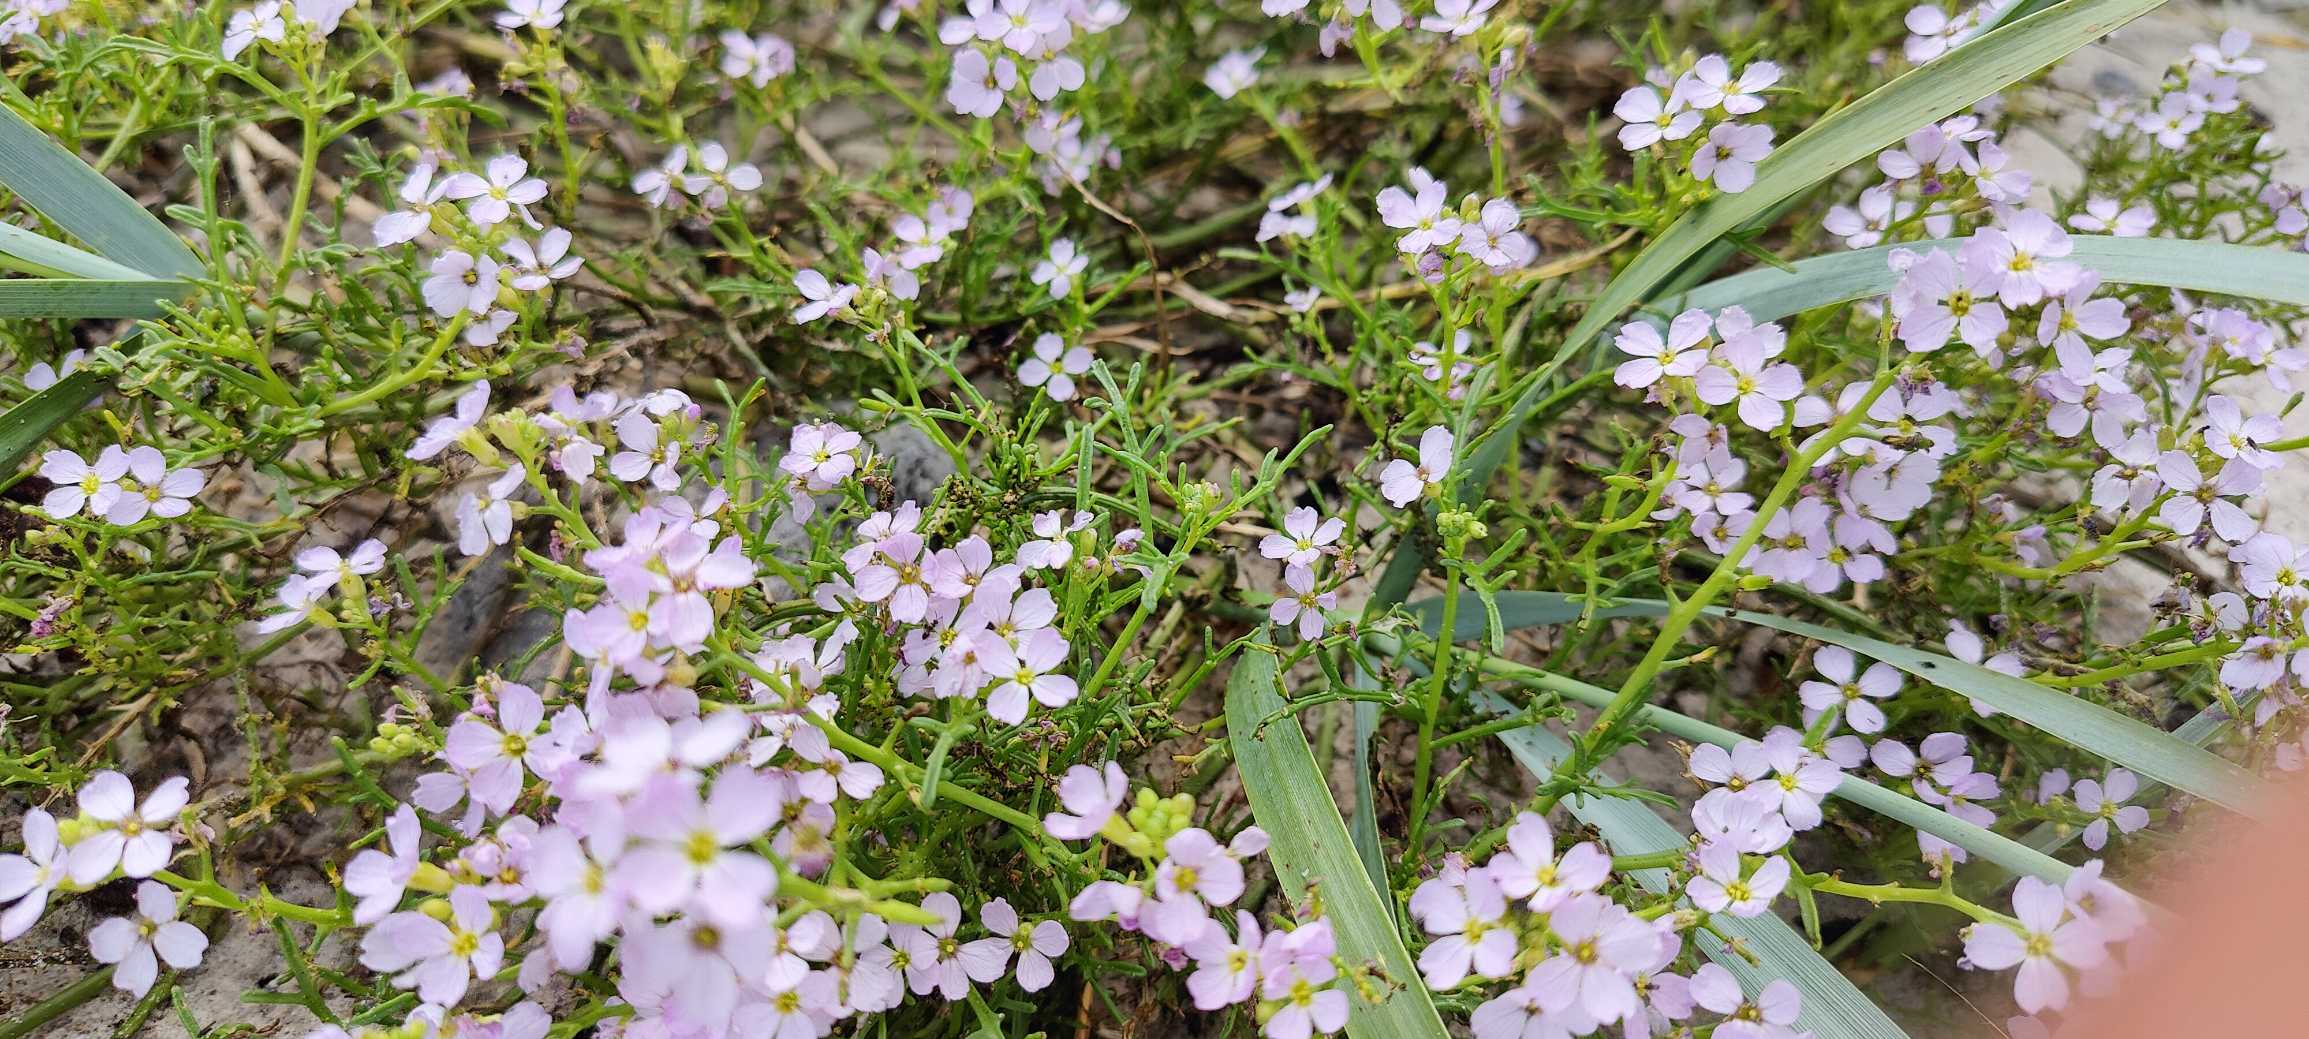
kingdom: Plantae
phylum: Tracheophyta
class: Magnoliopsida
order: Brassicales
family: Brassicaceae
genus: Cakile
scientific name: Cakile maritima
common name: Strandsennep
